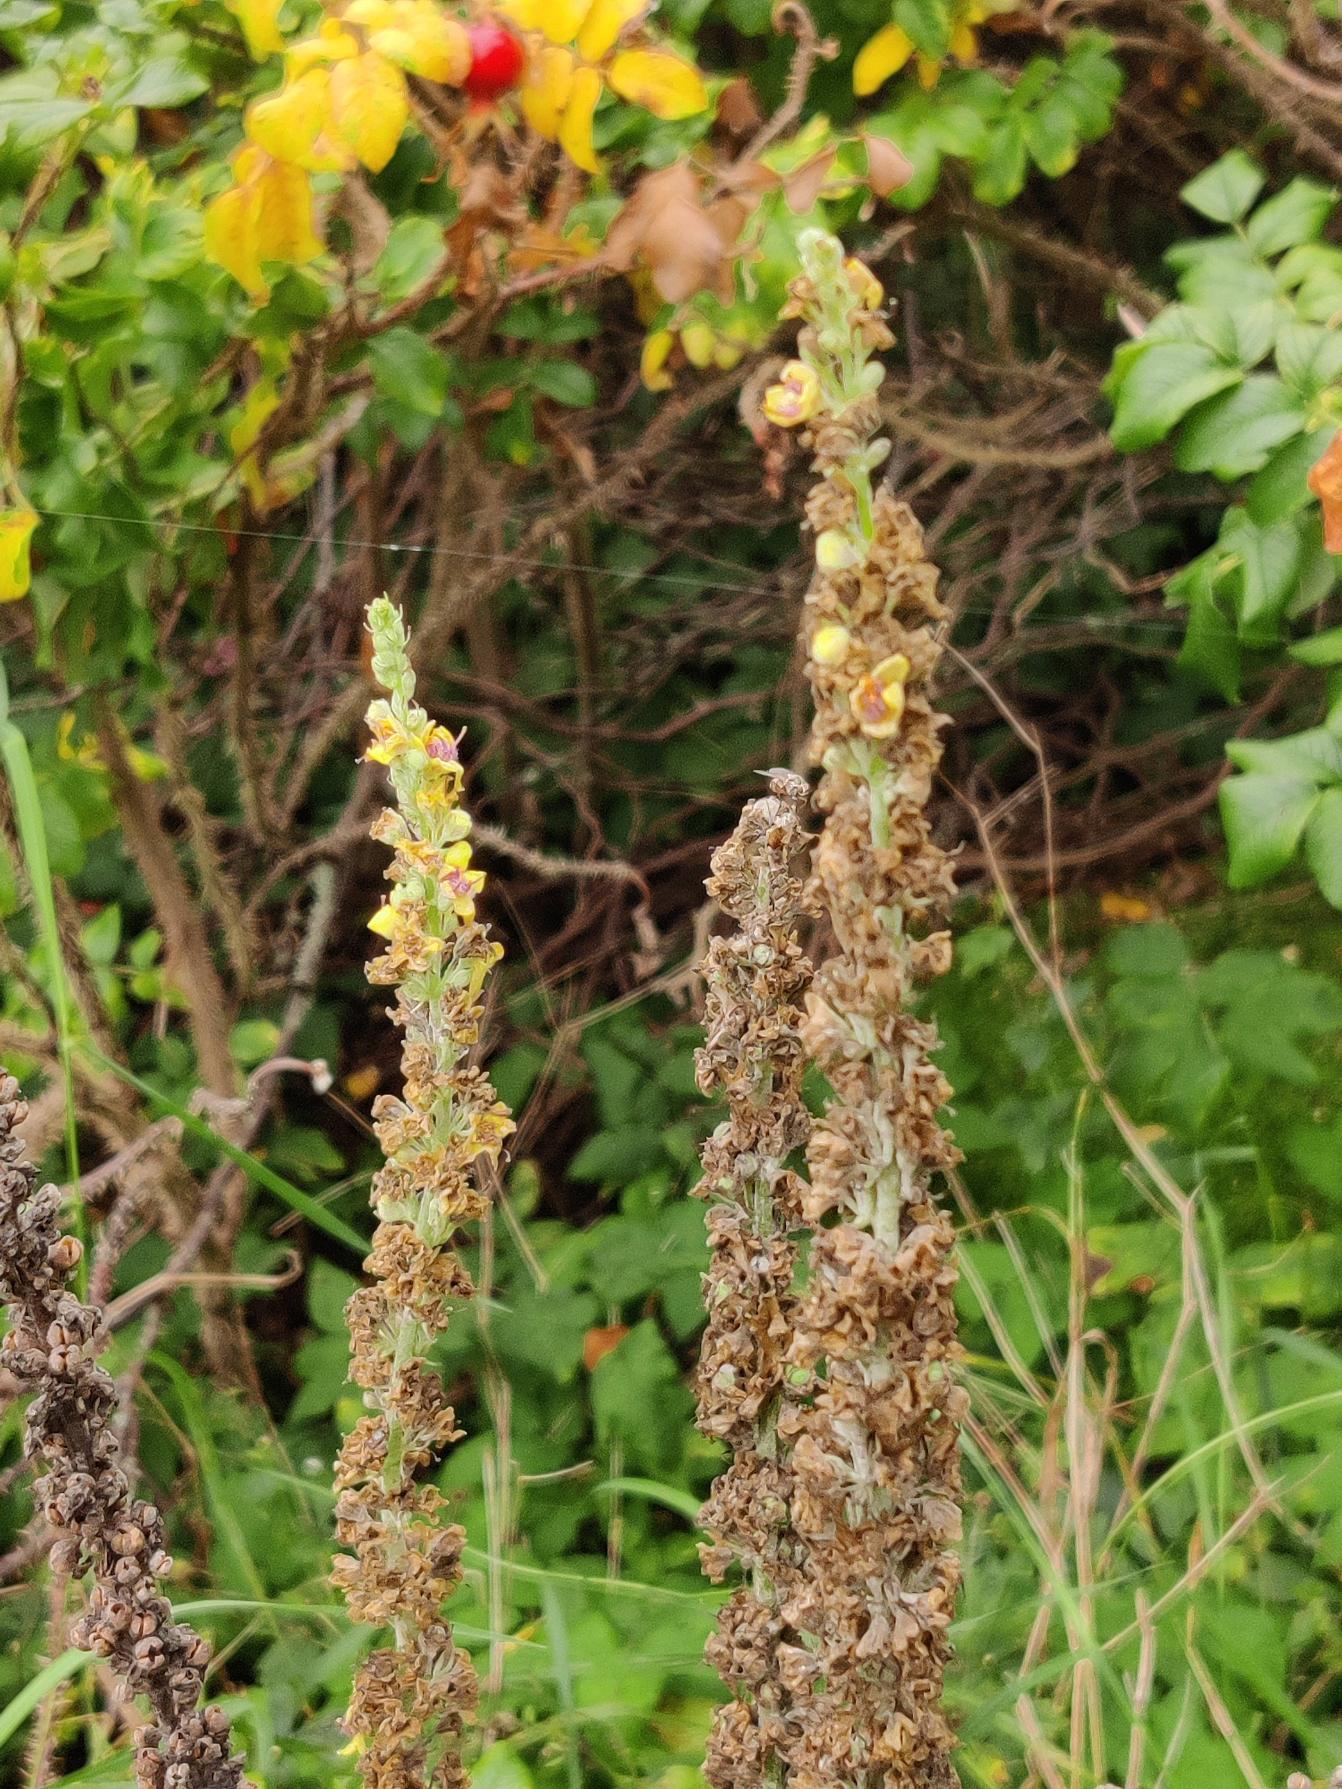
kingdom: Plantae
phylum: Tracheophyta
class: Magnoliopsida
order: Lamiales
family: Scrophulariaceae
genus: Verbascum
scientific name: Verbascum nigrum
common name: Mørk kongelys
